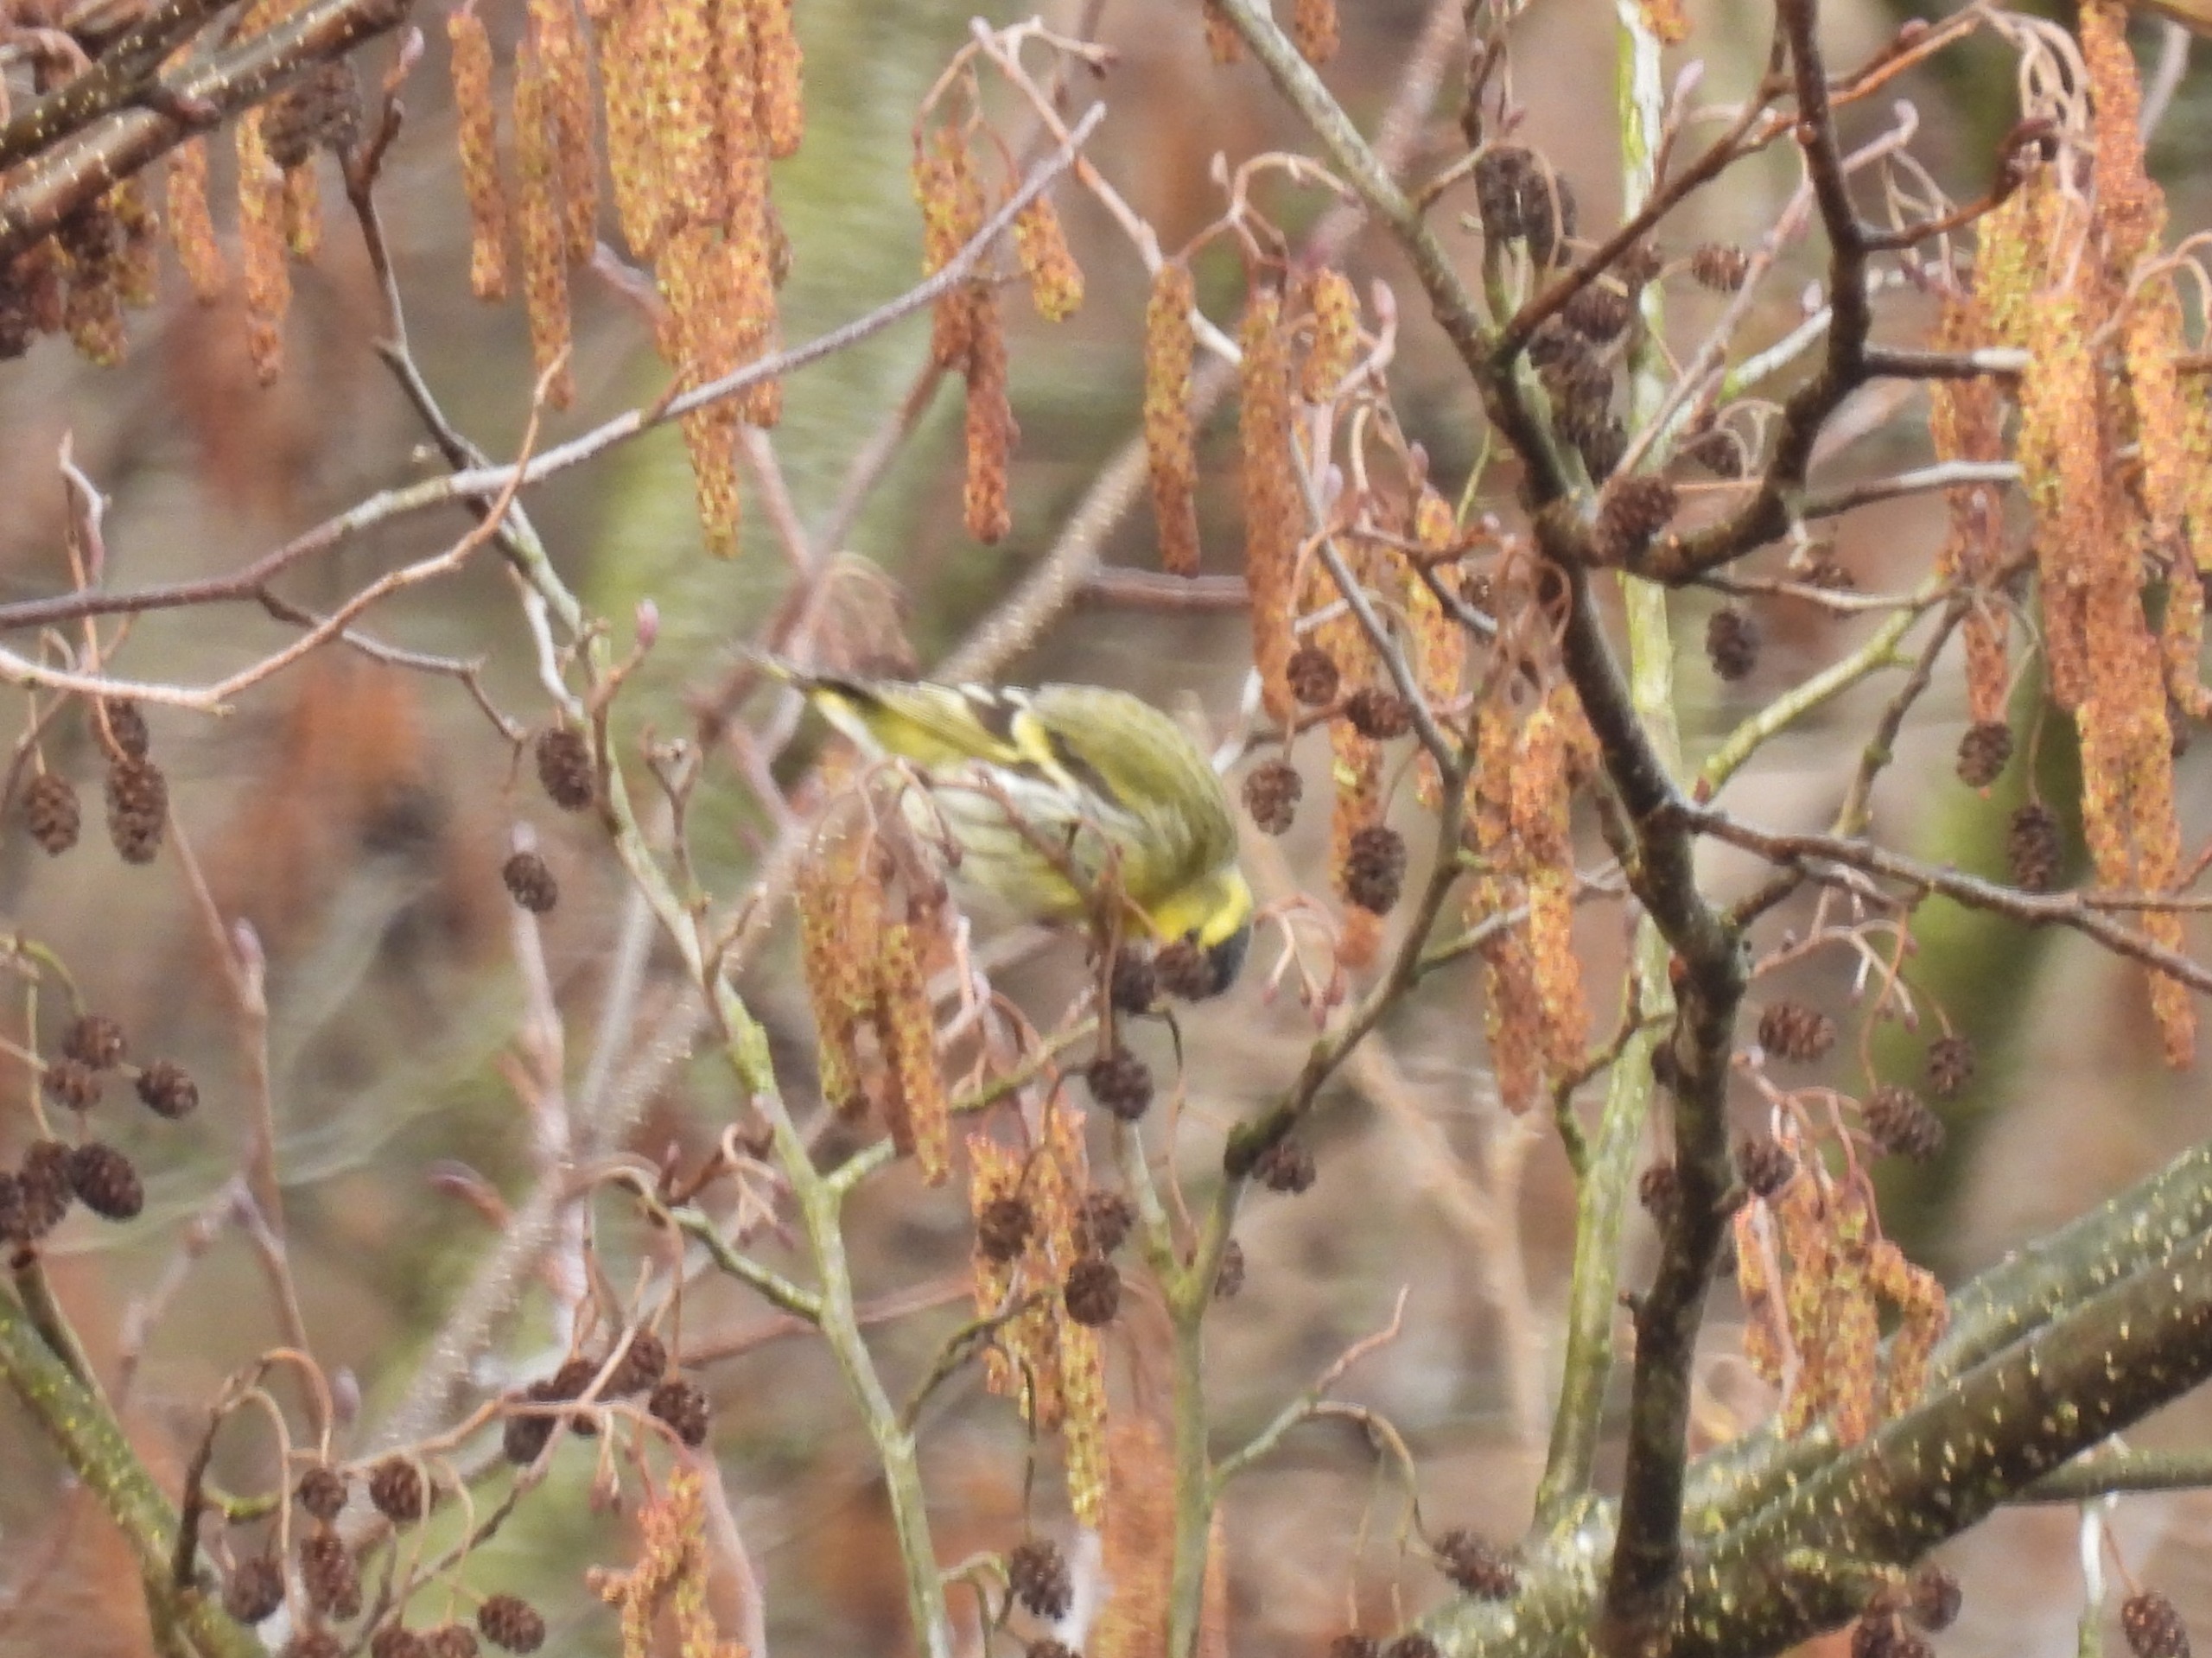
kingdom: Animalia
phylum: Chordata
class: Aves
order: Passeriformes
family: Fringillidae
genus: Spinus
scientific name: Spinus spinus
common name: Grønsisken
